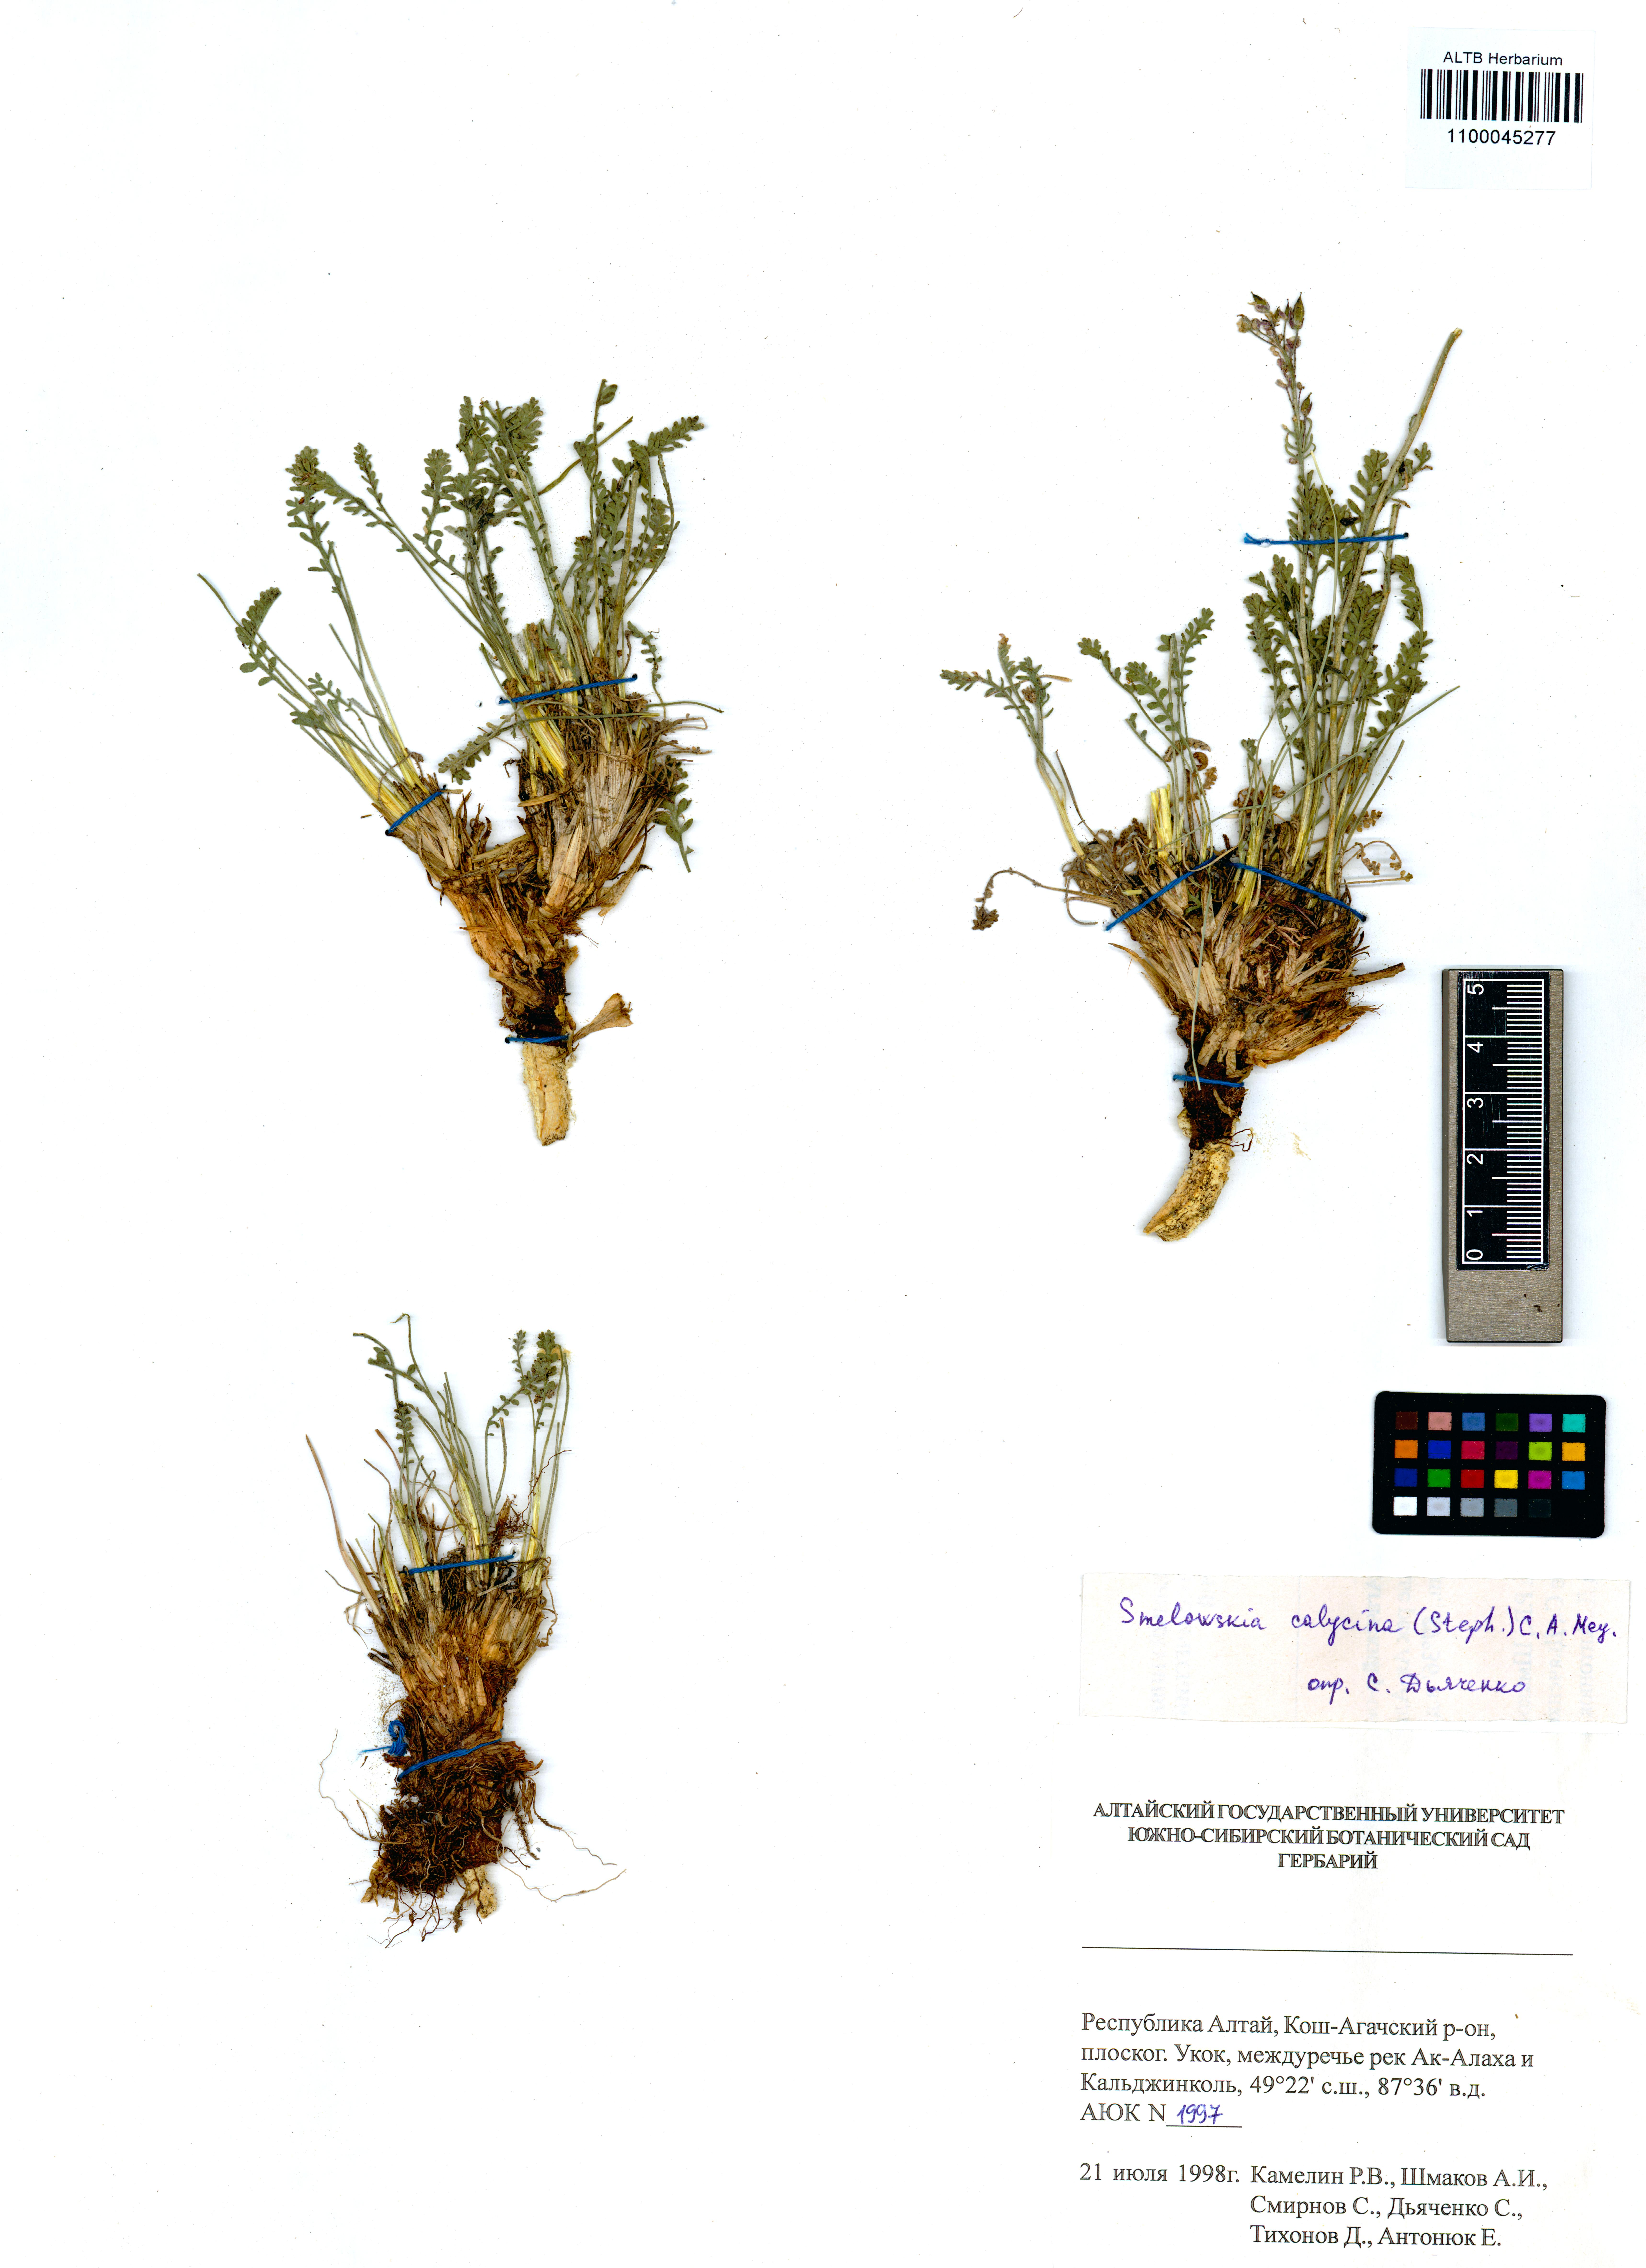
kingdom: Plantae
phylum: Tracheophyta
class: Magnoliopsida
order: Brassicales
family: Brassicaceae
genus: Smelowskia
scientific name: Smelowskia calycina
